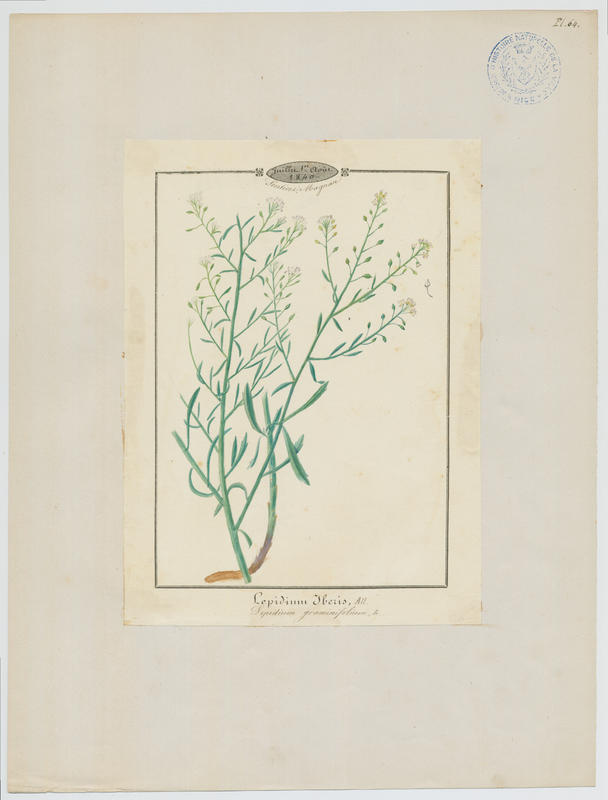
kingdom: Plantae
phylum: Tracheophyta
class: Magnoliopsida
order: Brassicales
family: Brassicaceae
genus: Lepidium
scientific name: Lepidium virginicum
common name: Least pepperwort
